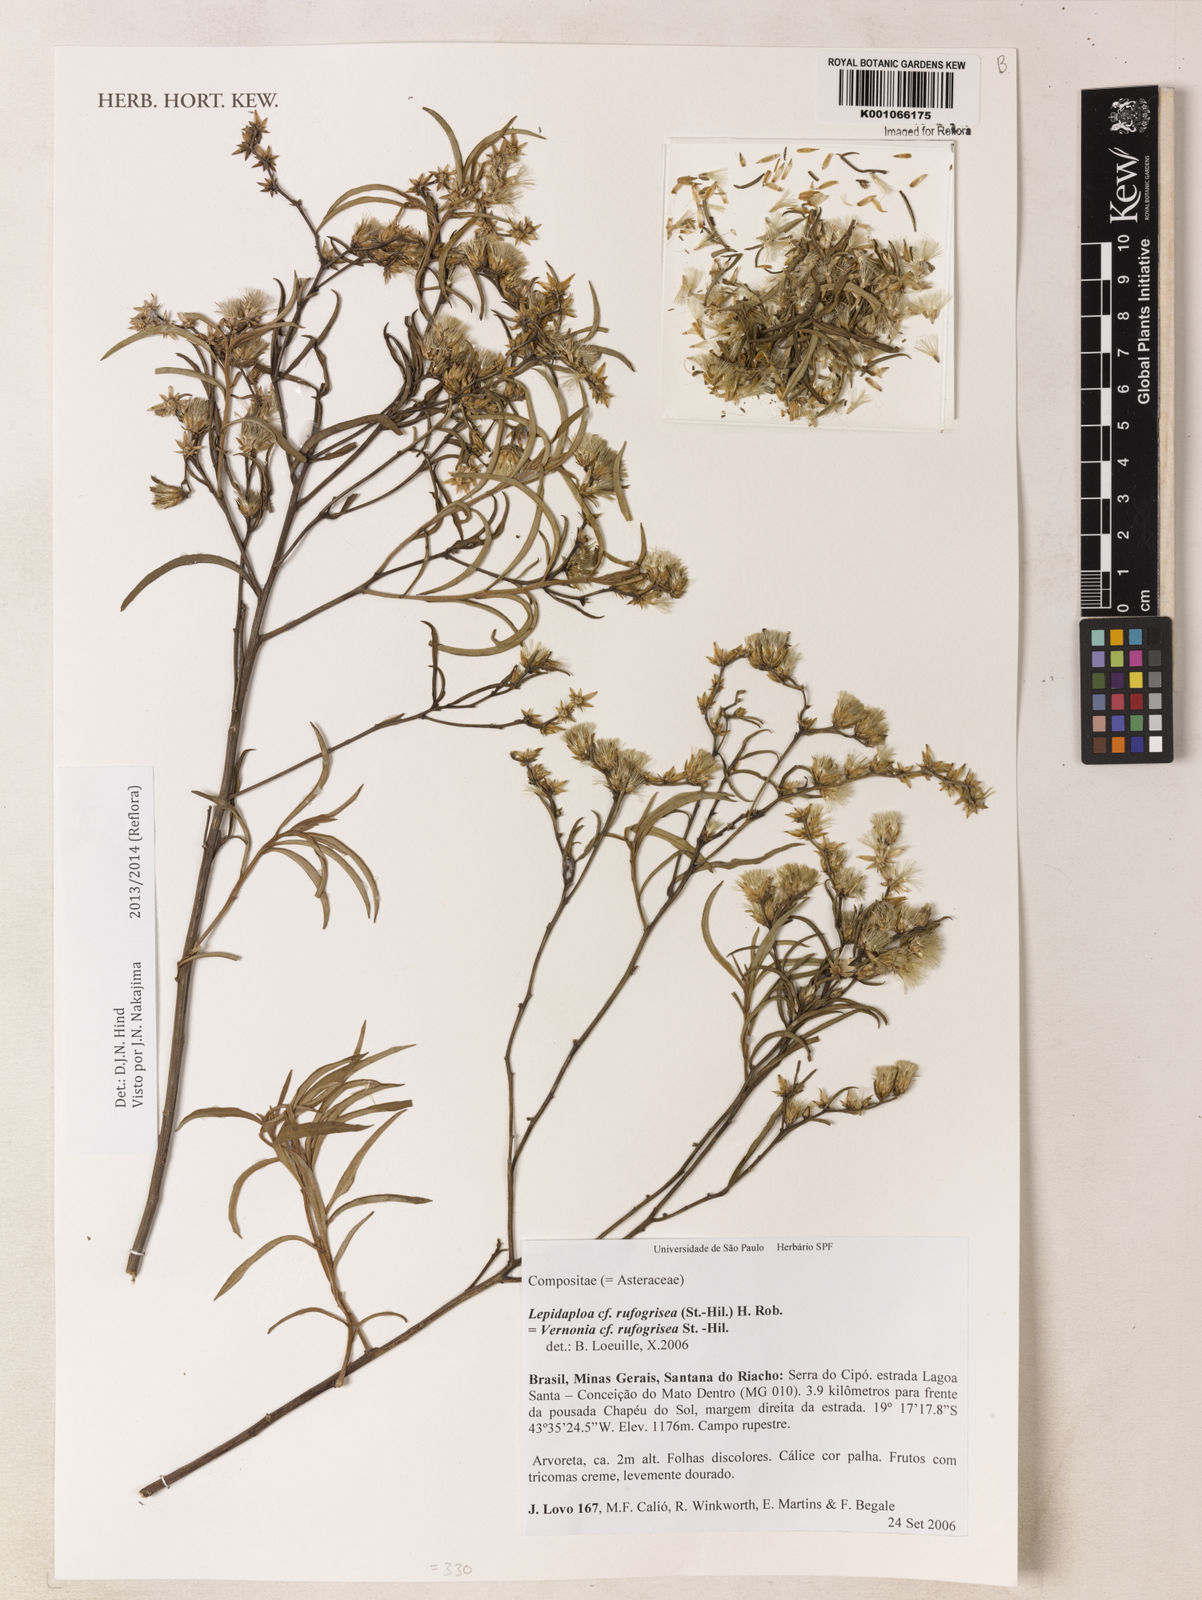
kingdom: Plantae
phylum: Tracheophyta
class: Magnoliopsida
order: Asterales
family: Asteraceae
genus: Lepidaploa
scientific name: Lepidaploa rufogrisea
